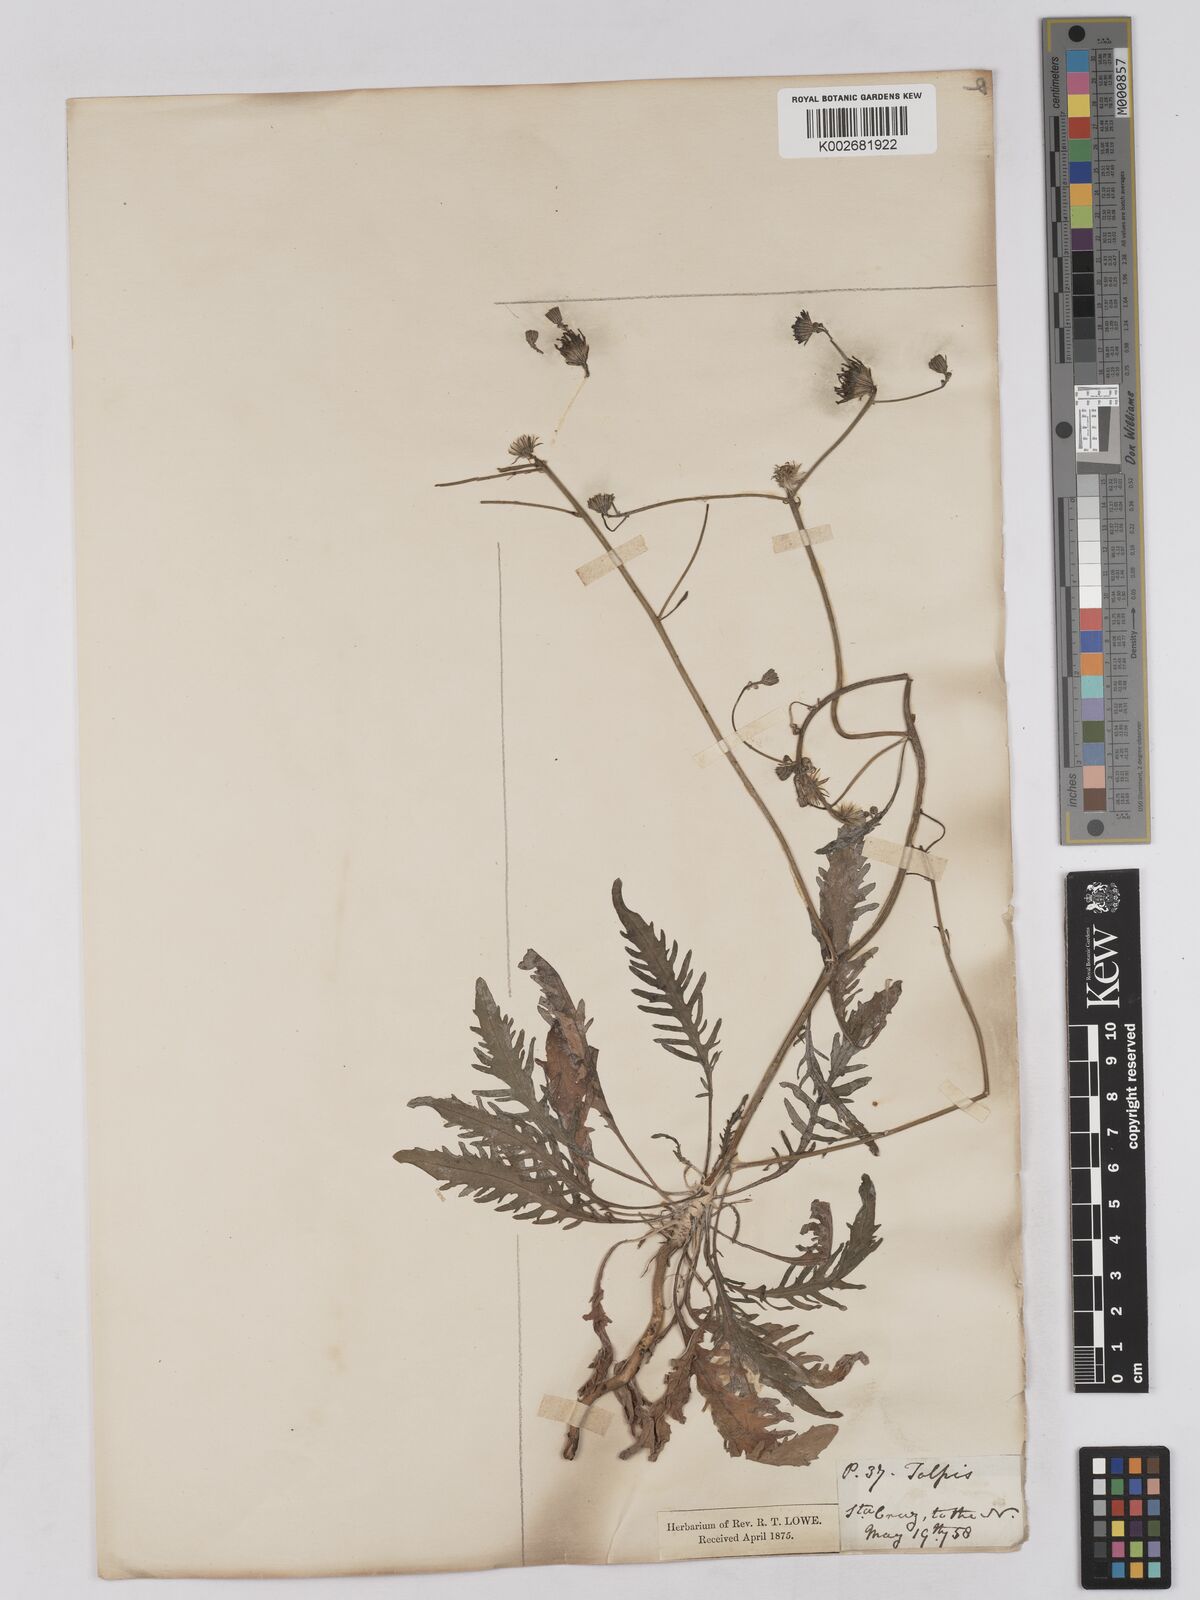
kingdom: Plantae
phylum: Tracheophyta
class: Magnoliopsida
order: Asterales
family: Asteraceae
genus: Tolpis
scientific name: Tolpis laciniata
